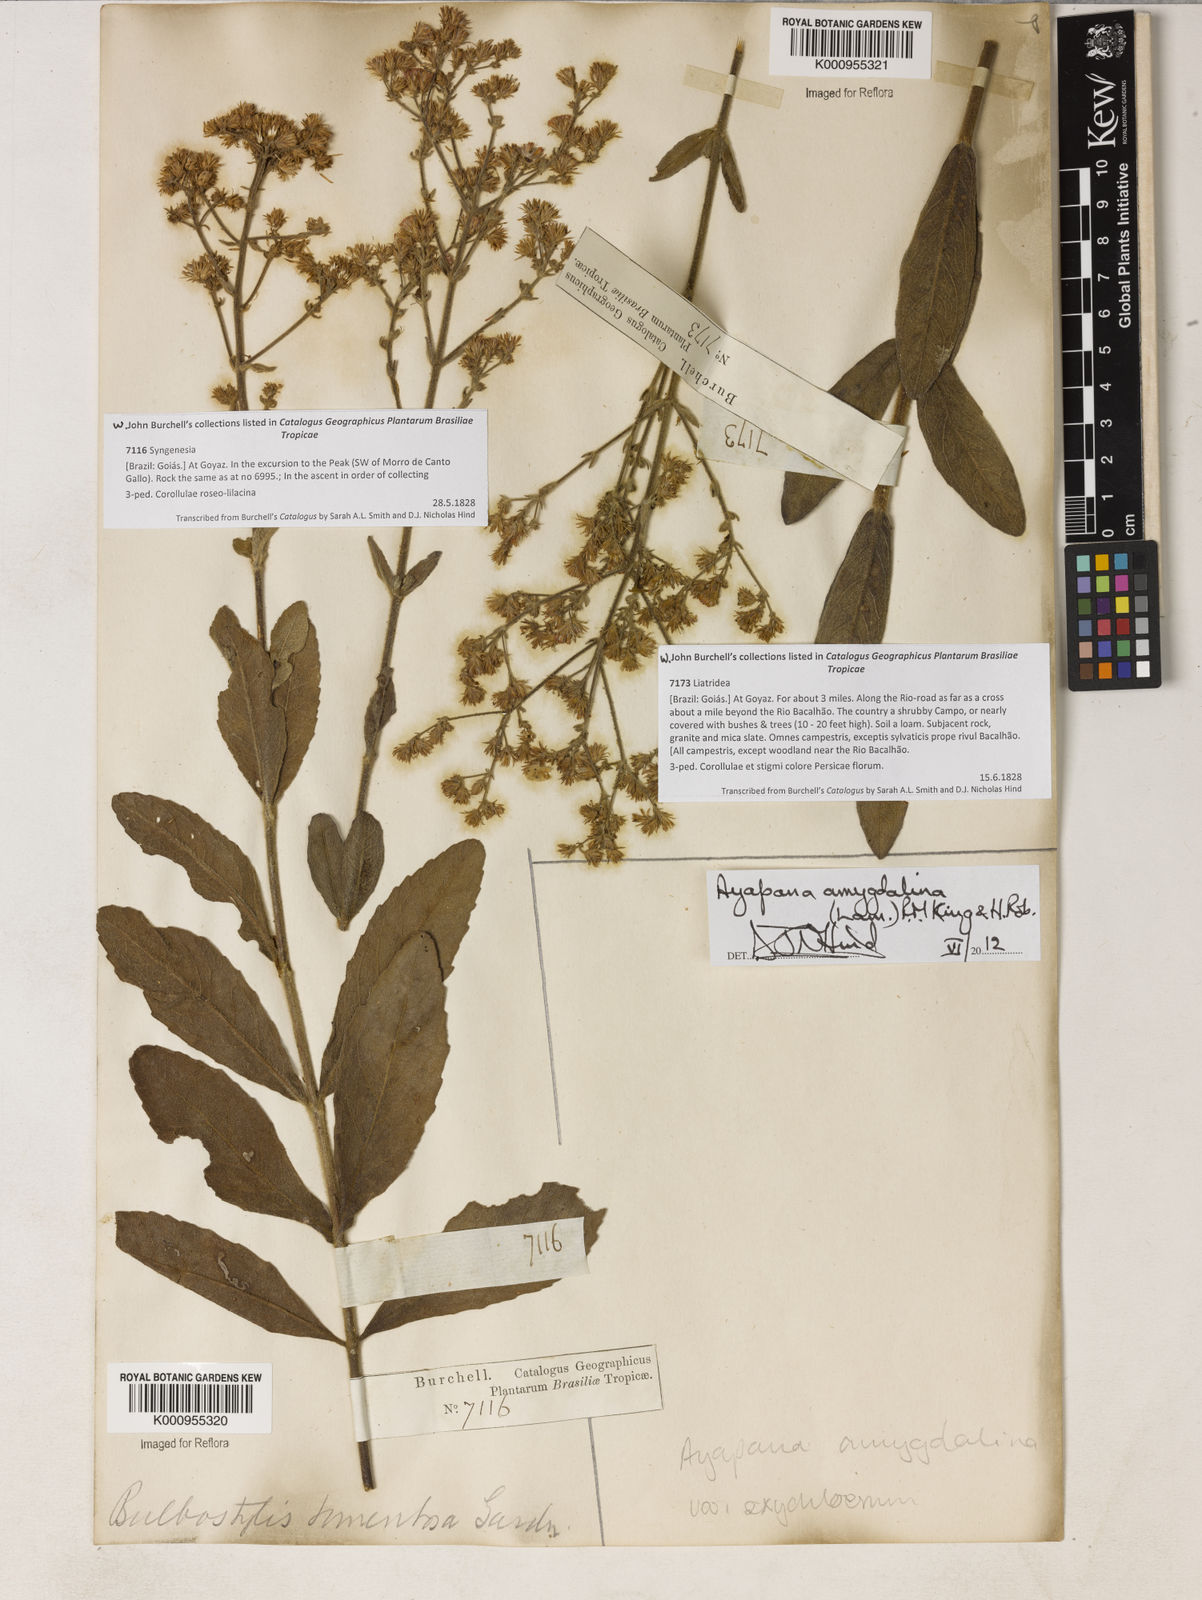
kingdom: Plantae
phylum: Tracheophyta
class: Magnoliopsida
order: Asterales
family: Asteraceae
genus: Ayapana
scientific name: Ayapana amygdalina
